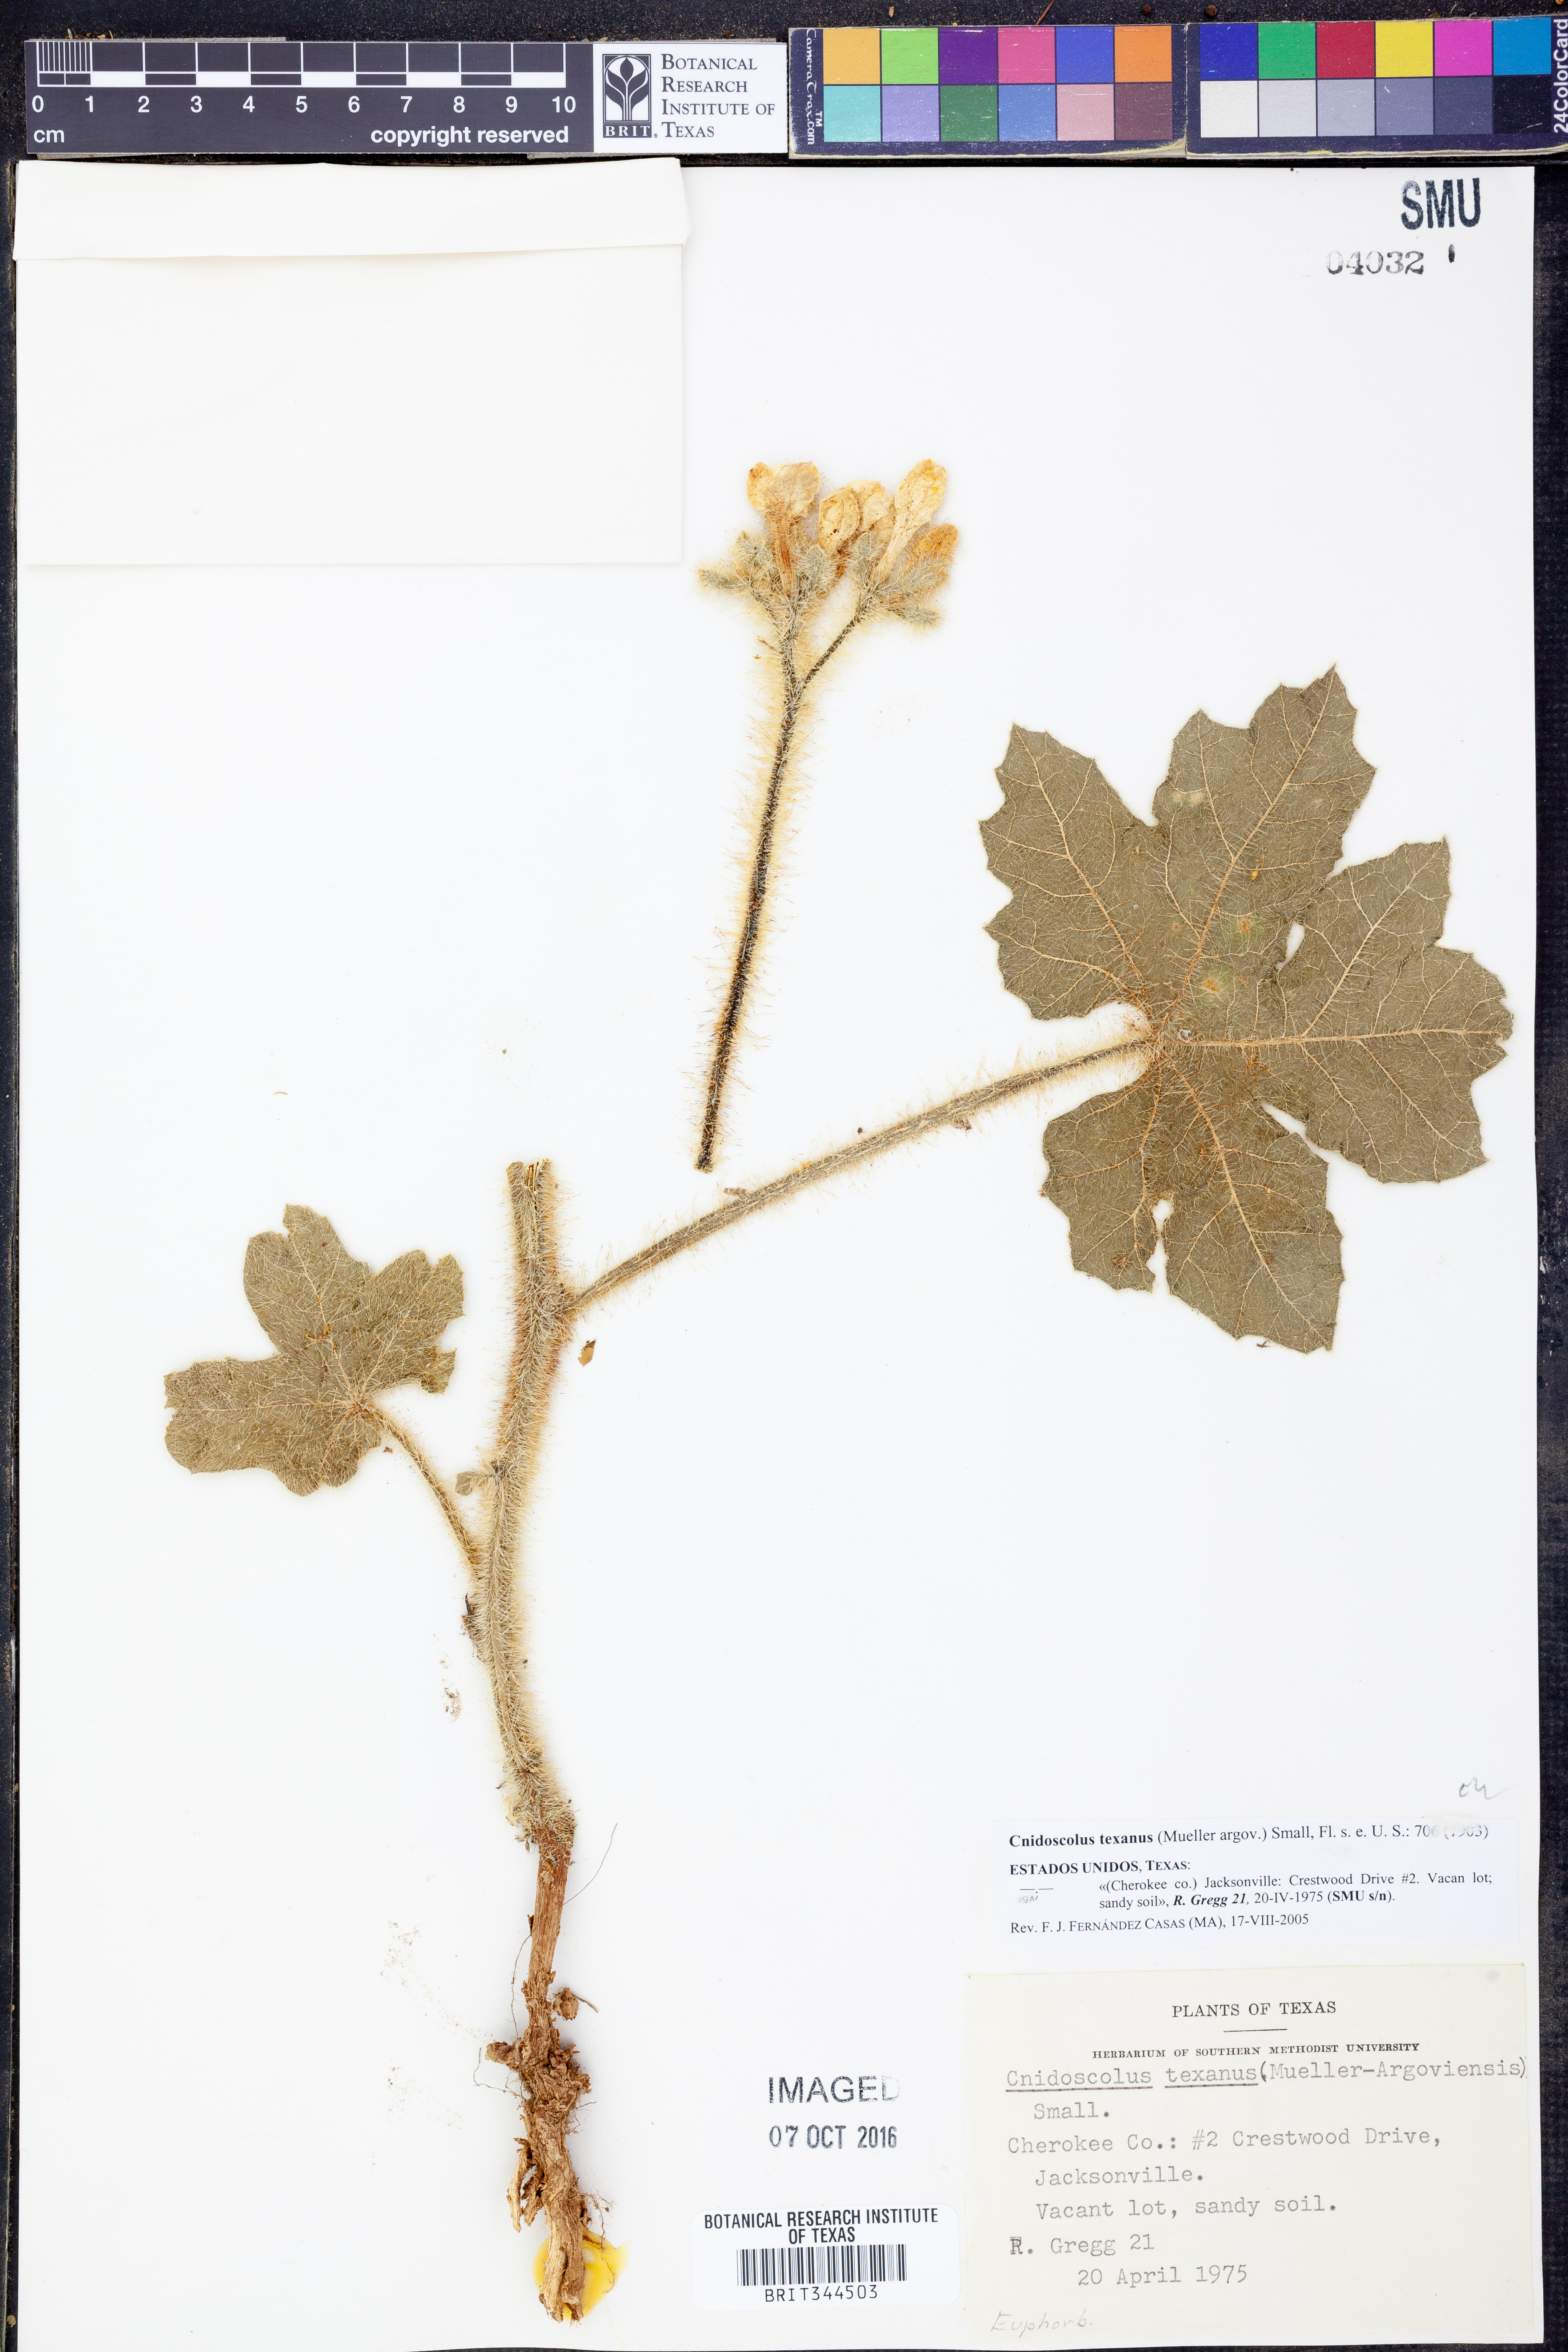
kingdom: Plantae
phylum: Tracheophyta
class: Magnoliopsida
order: Malpighiales
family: Euphorbiaceae
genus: Cnidoscolus
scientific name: Cnidoscolus texanus
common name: Texas bull-nettle
